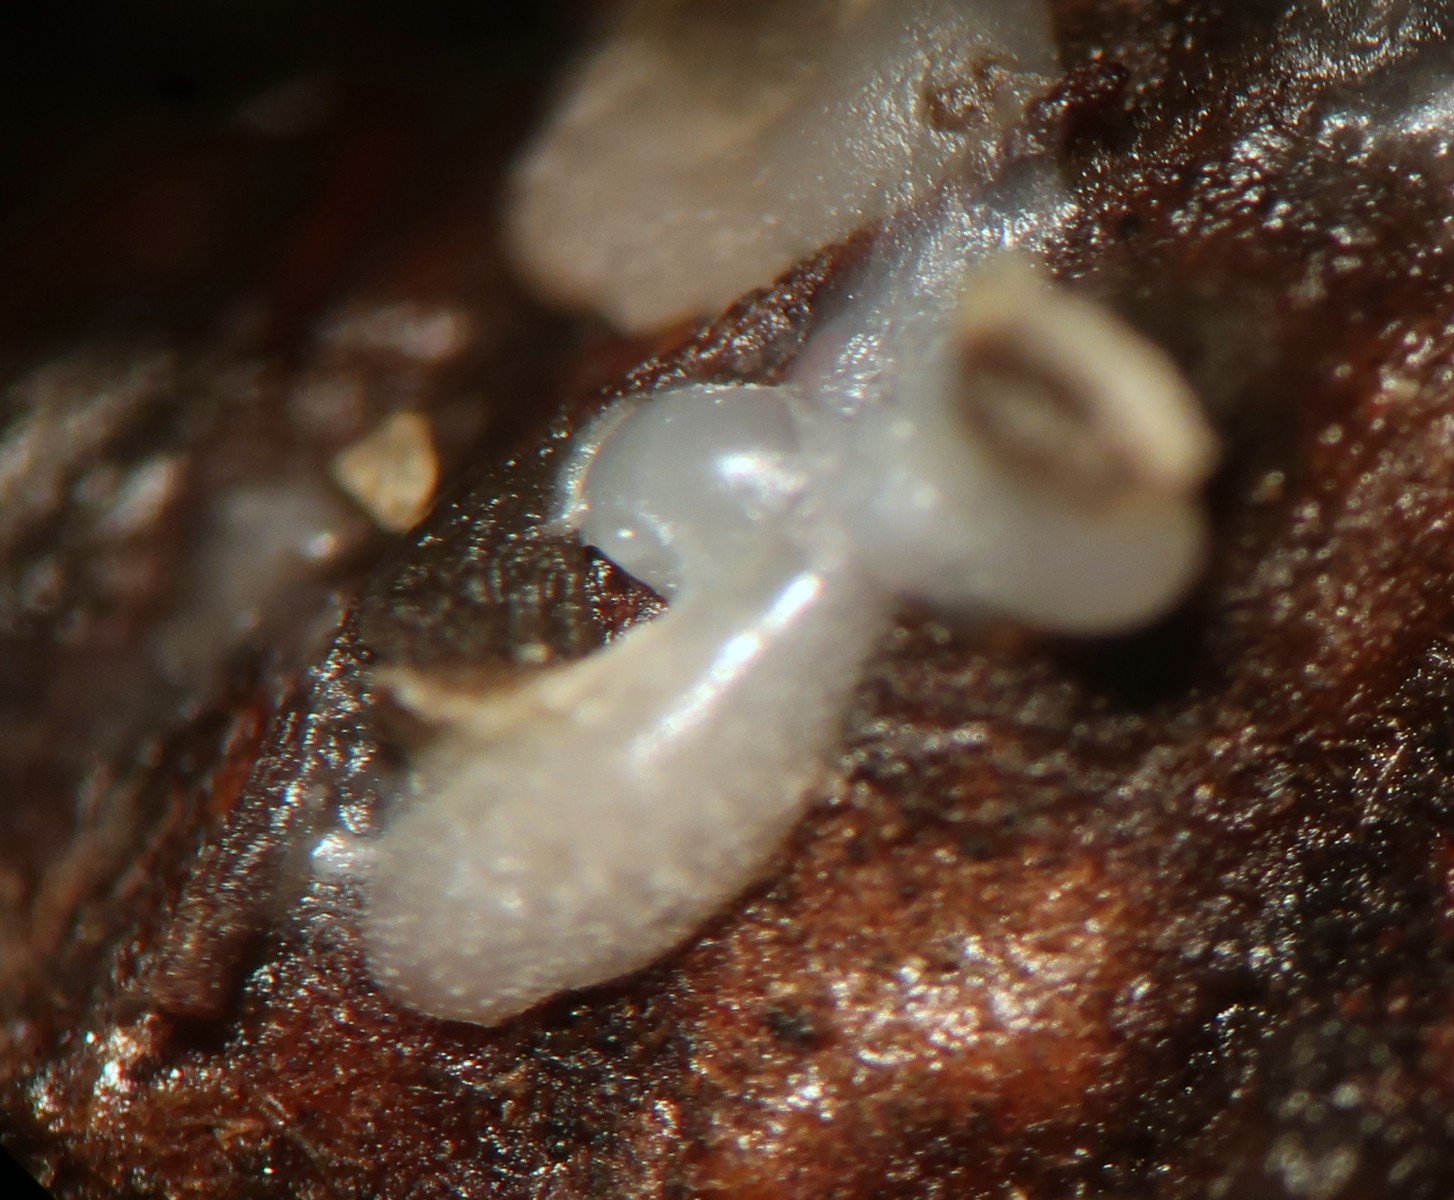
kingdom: Protozoa
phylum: Mycetozoa
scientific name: Mycetozoa
